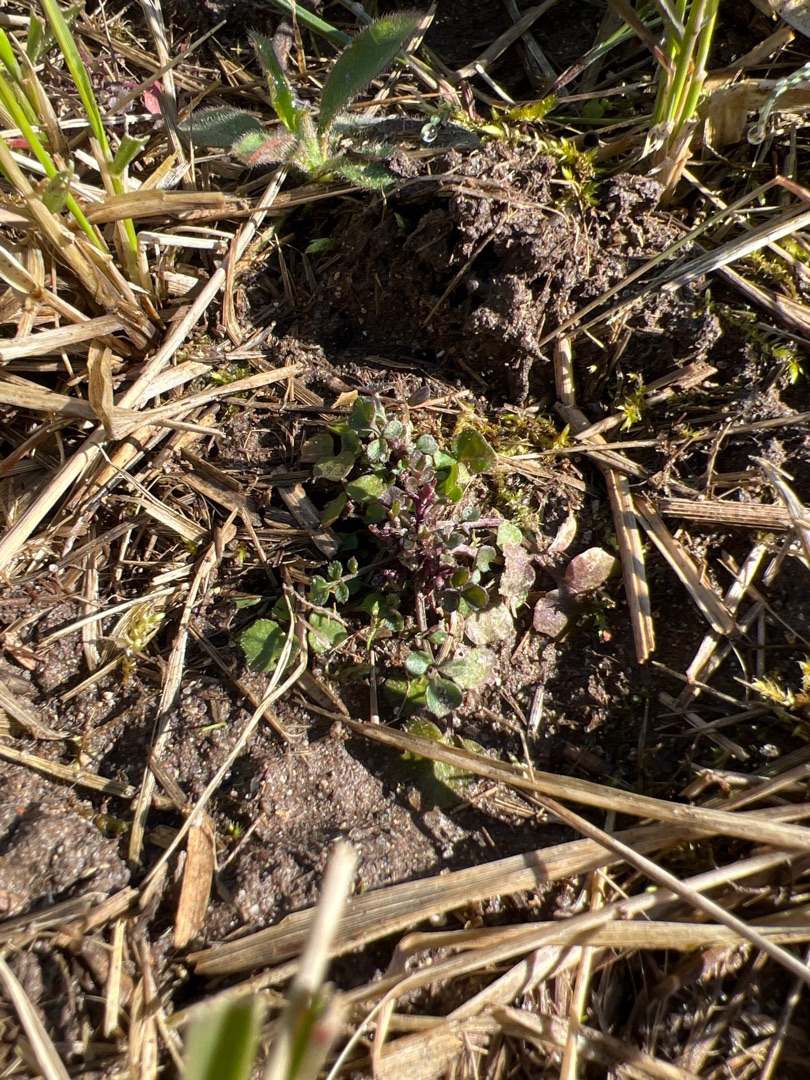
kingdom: Plantae
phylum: Tracheophyta
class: Magnoliopsida
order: Brassicales
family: Brassicaceae
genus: Cardamine
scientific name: Cardamine hirsuta
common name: Roset-springklap
